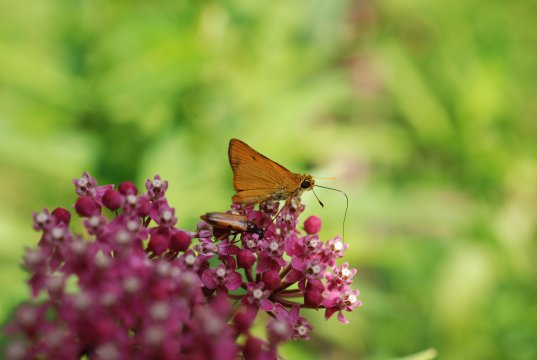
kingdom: Animalia
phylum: Arthropoda
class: Insecta
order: Lepidoptera
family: Hesperiidae
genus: Atrytone
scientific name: Atrytone delaware
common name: Delaware Skipper
